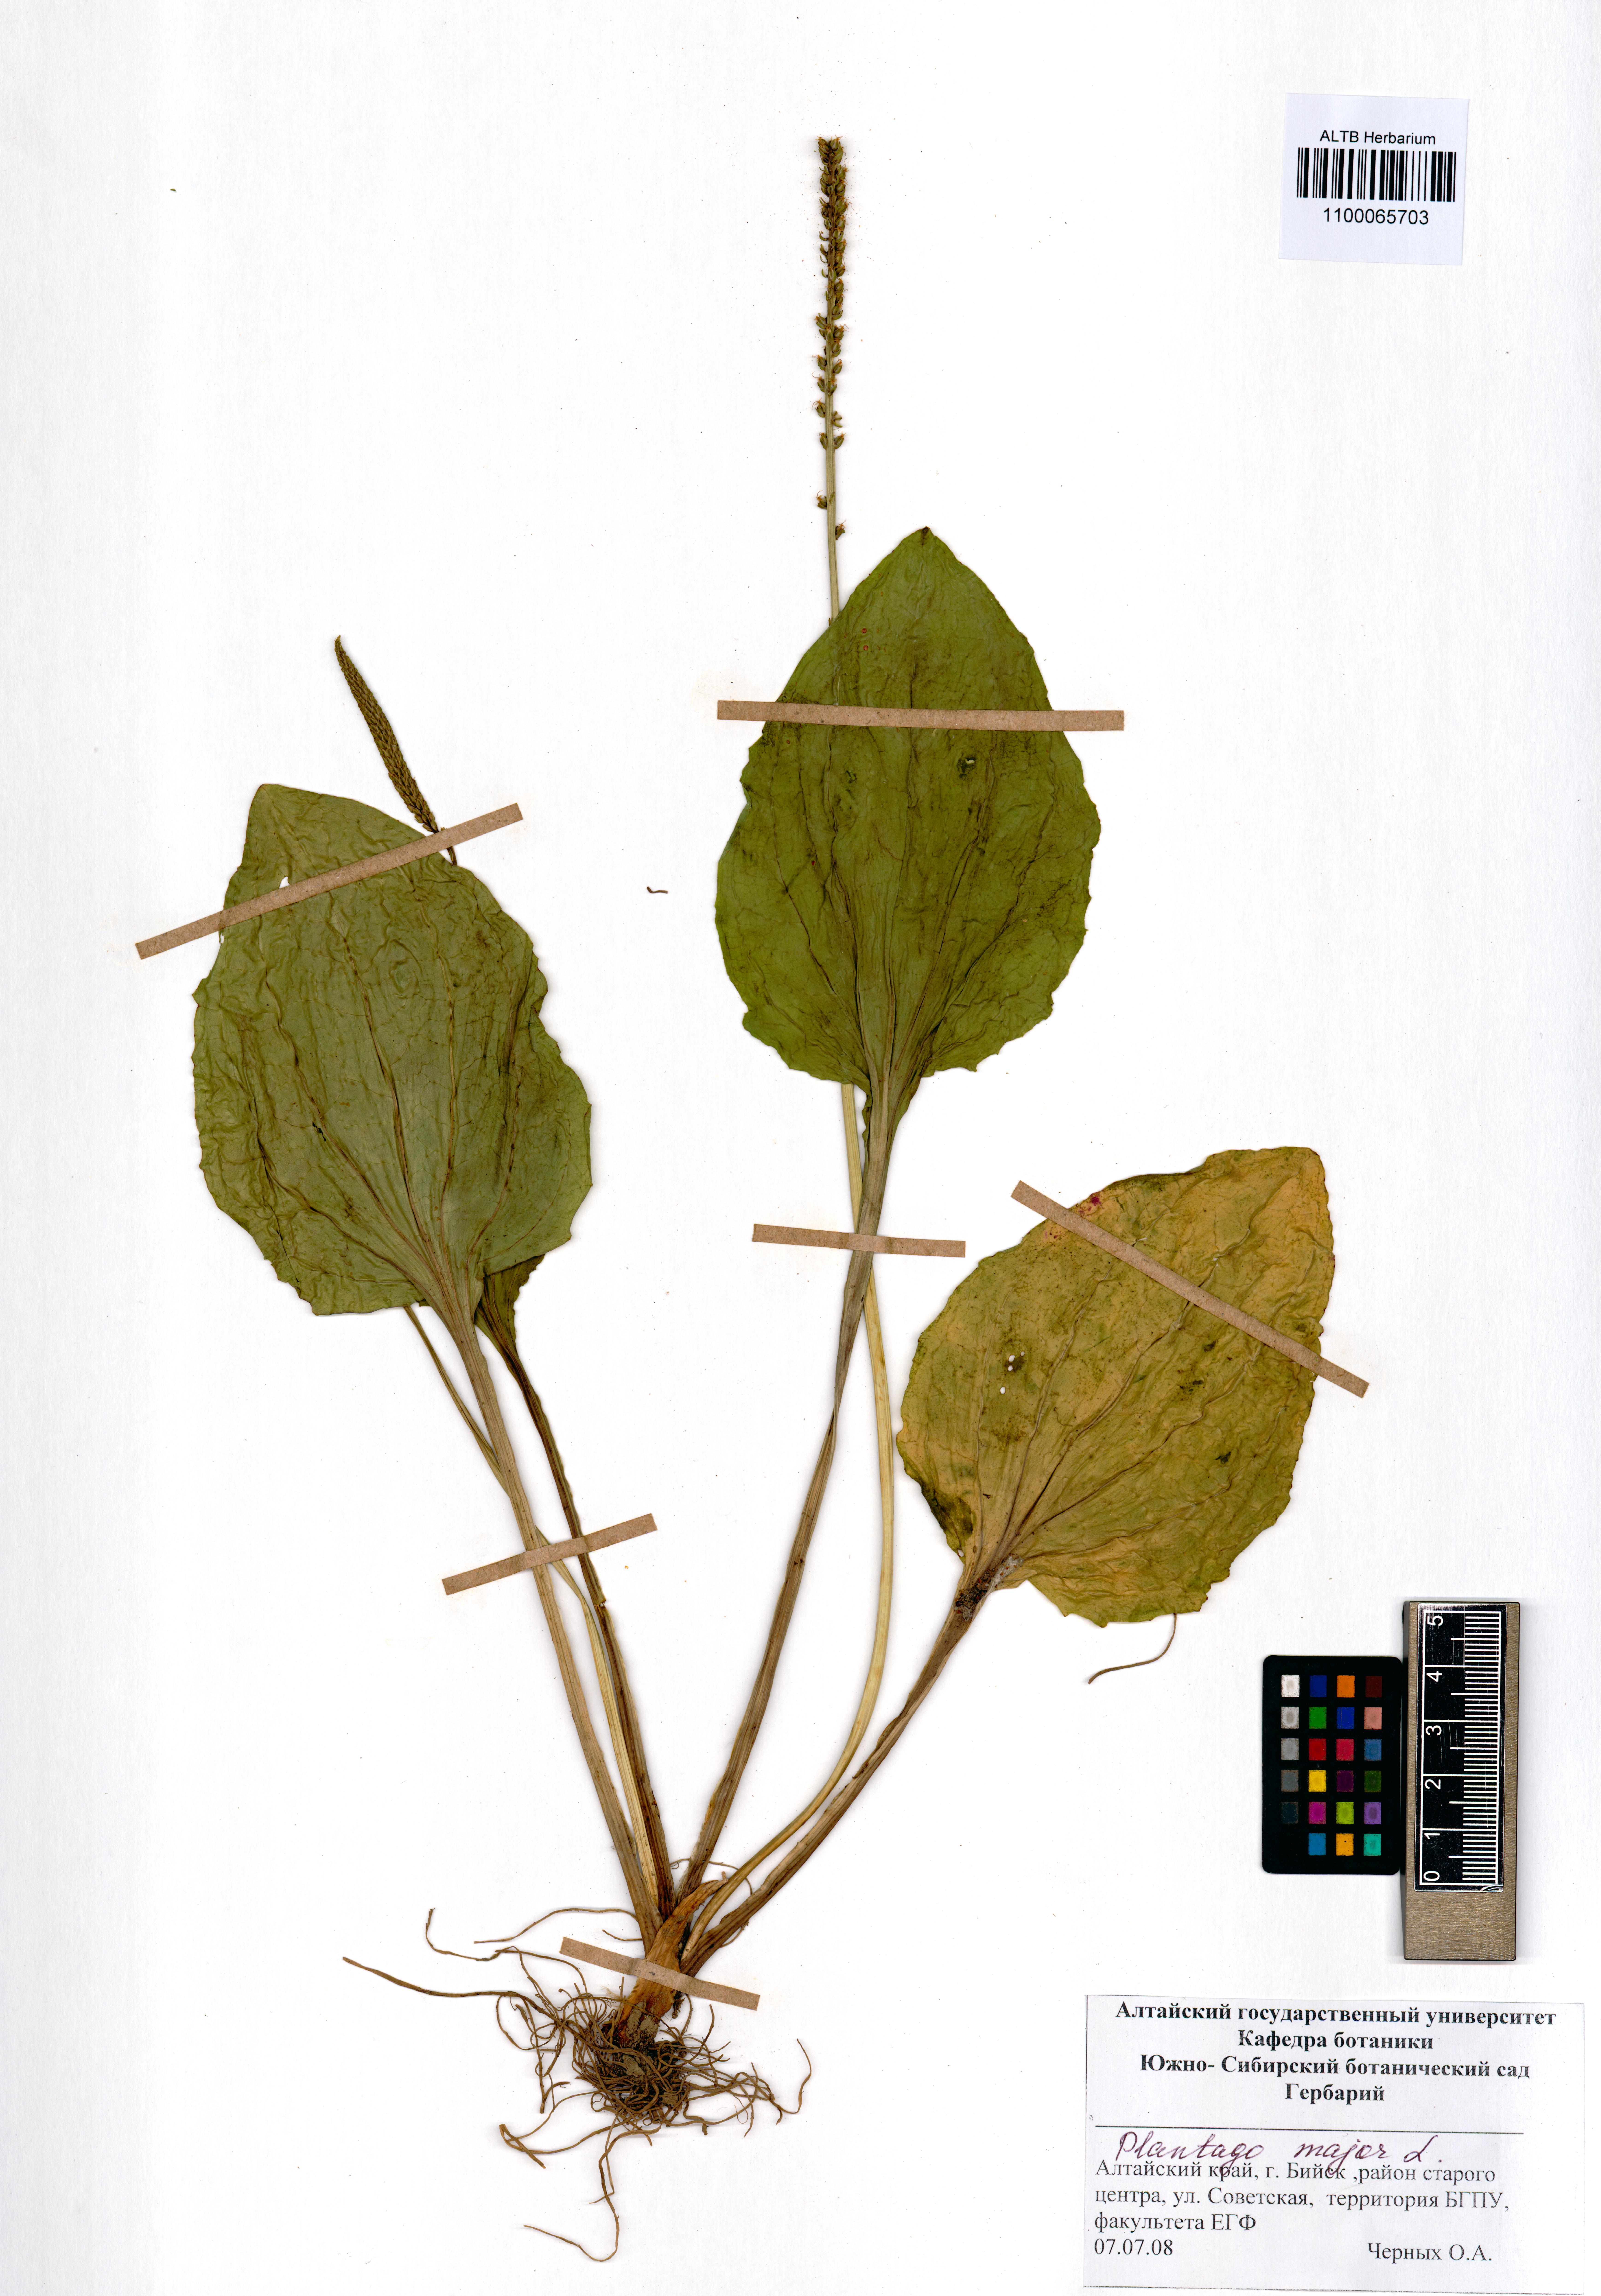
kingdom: Plantae
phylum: Tracheophyta
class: Magnoliopsida
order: Lamiales
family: Plantaginaceae
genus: Plantago
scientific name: Plantago major
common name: Common plantain
